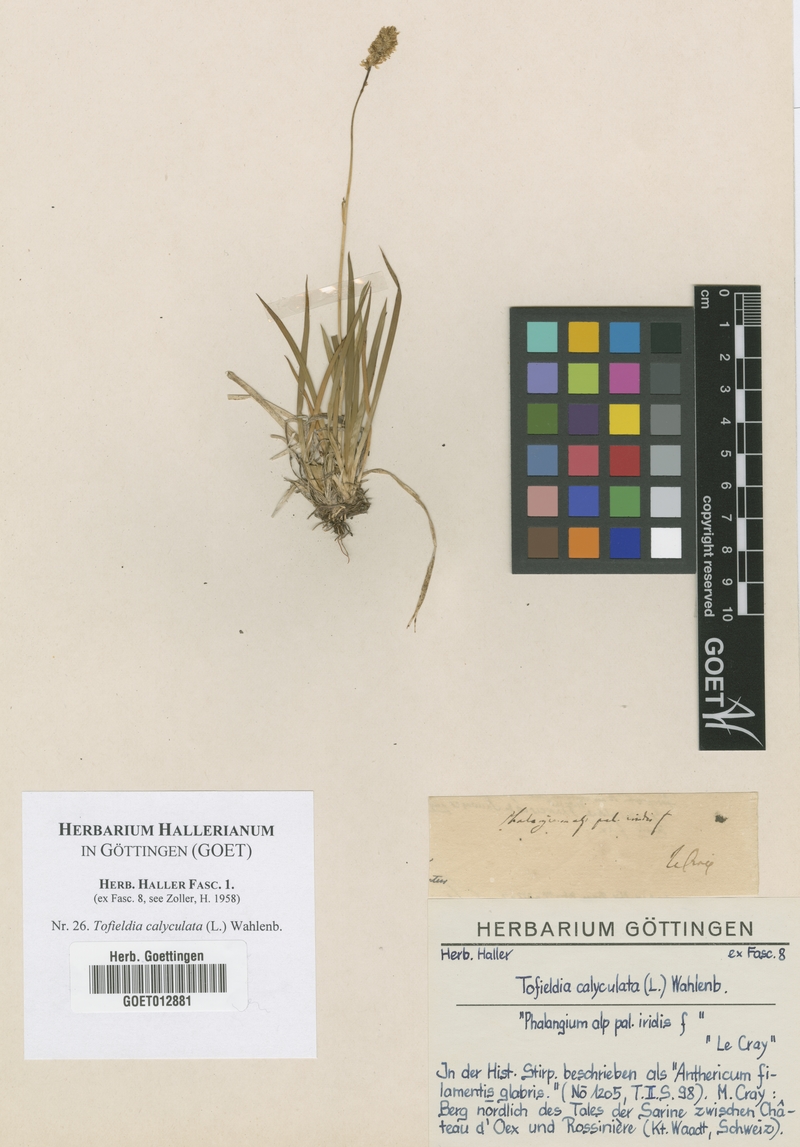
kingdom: Plantae
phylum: Tracheophyta
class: Liliopsida
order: Alismatales
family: Tofieldiaceae
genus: Tofieldia
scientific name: Tofieldia calyculata
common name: German-asphodel
